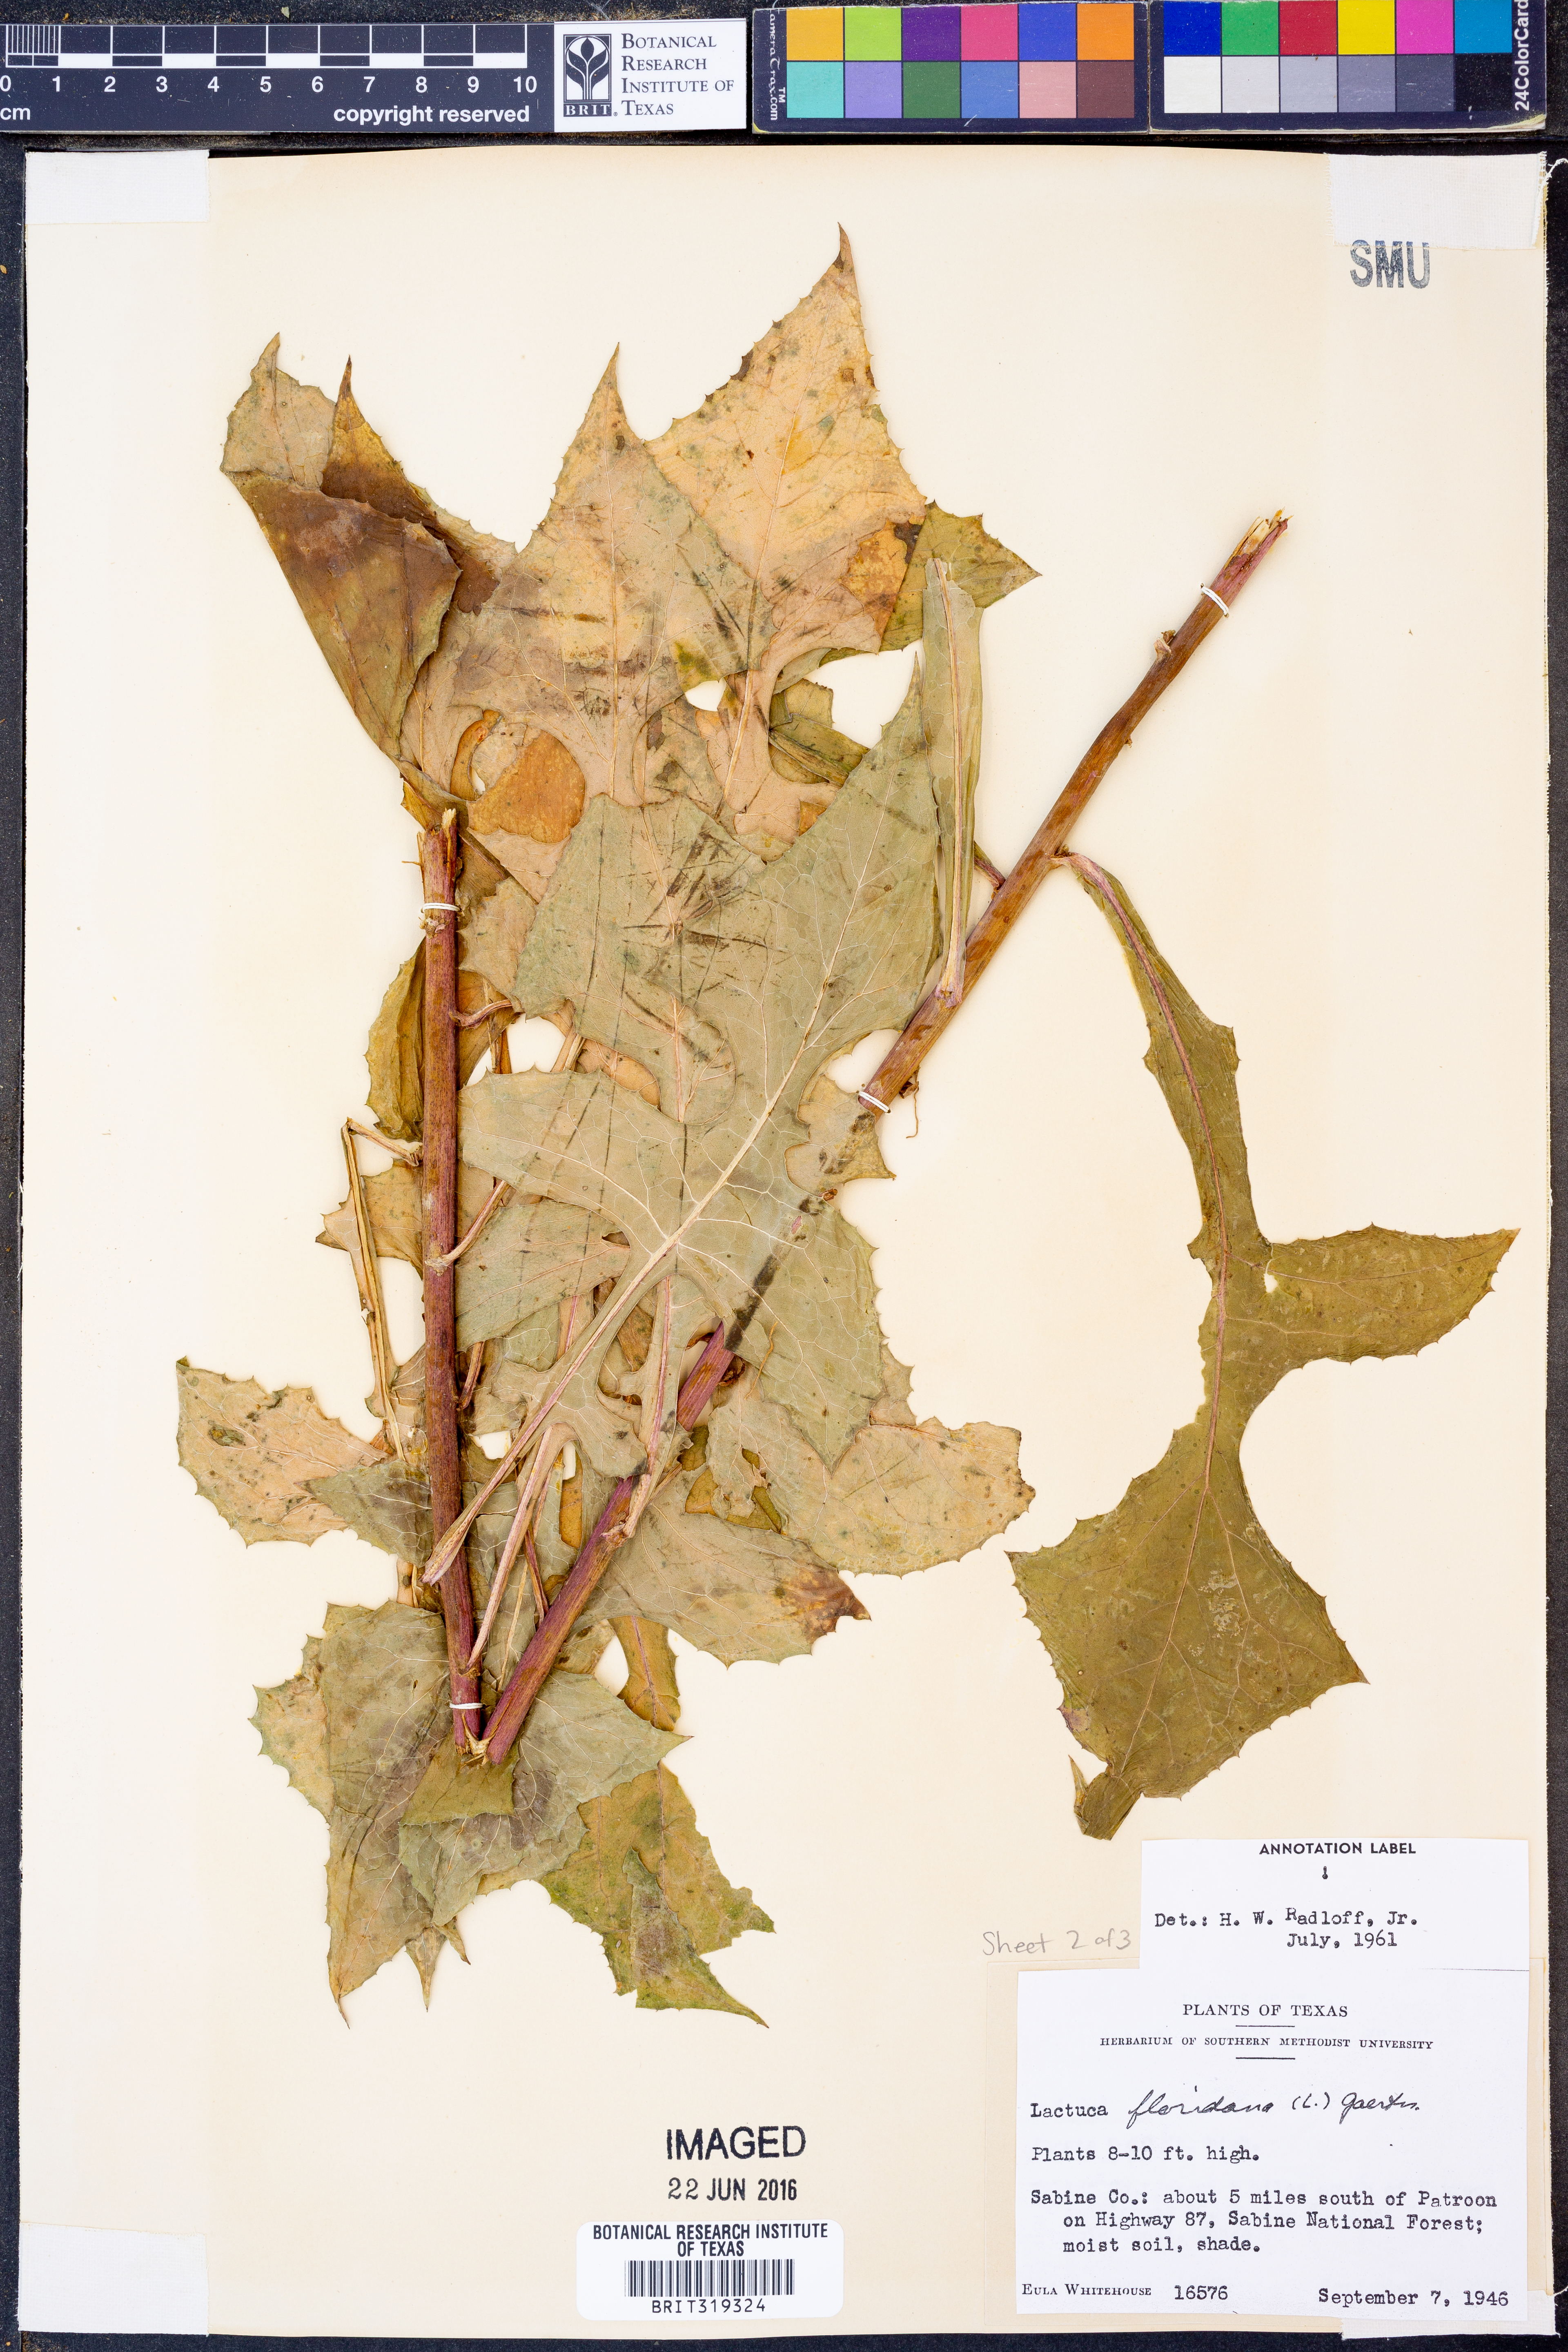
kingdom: Plantae
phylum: Tracheophyta
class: Magnoliopsida
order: Asterales
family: Asteraceae
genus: Lactuca
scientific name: Lactuca floridana
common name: Woodland lettuce
